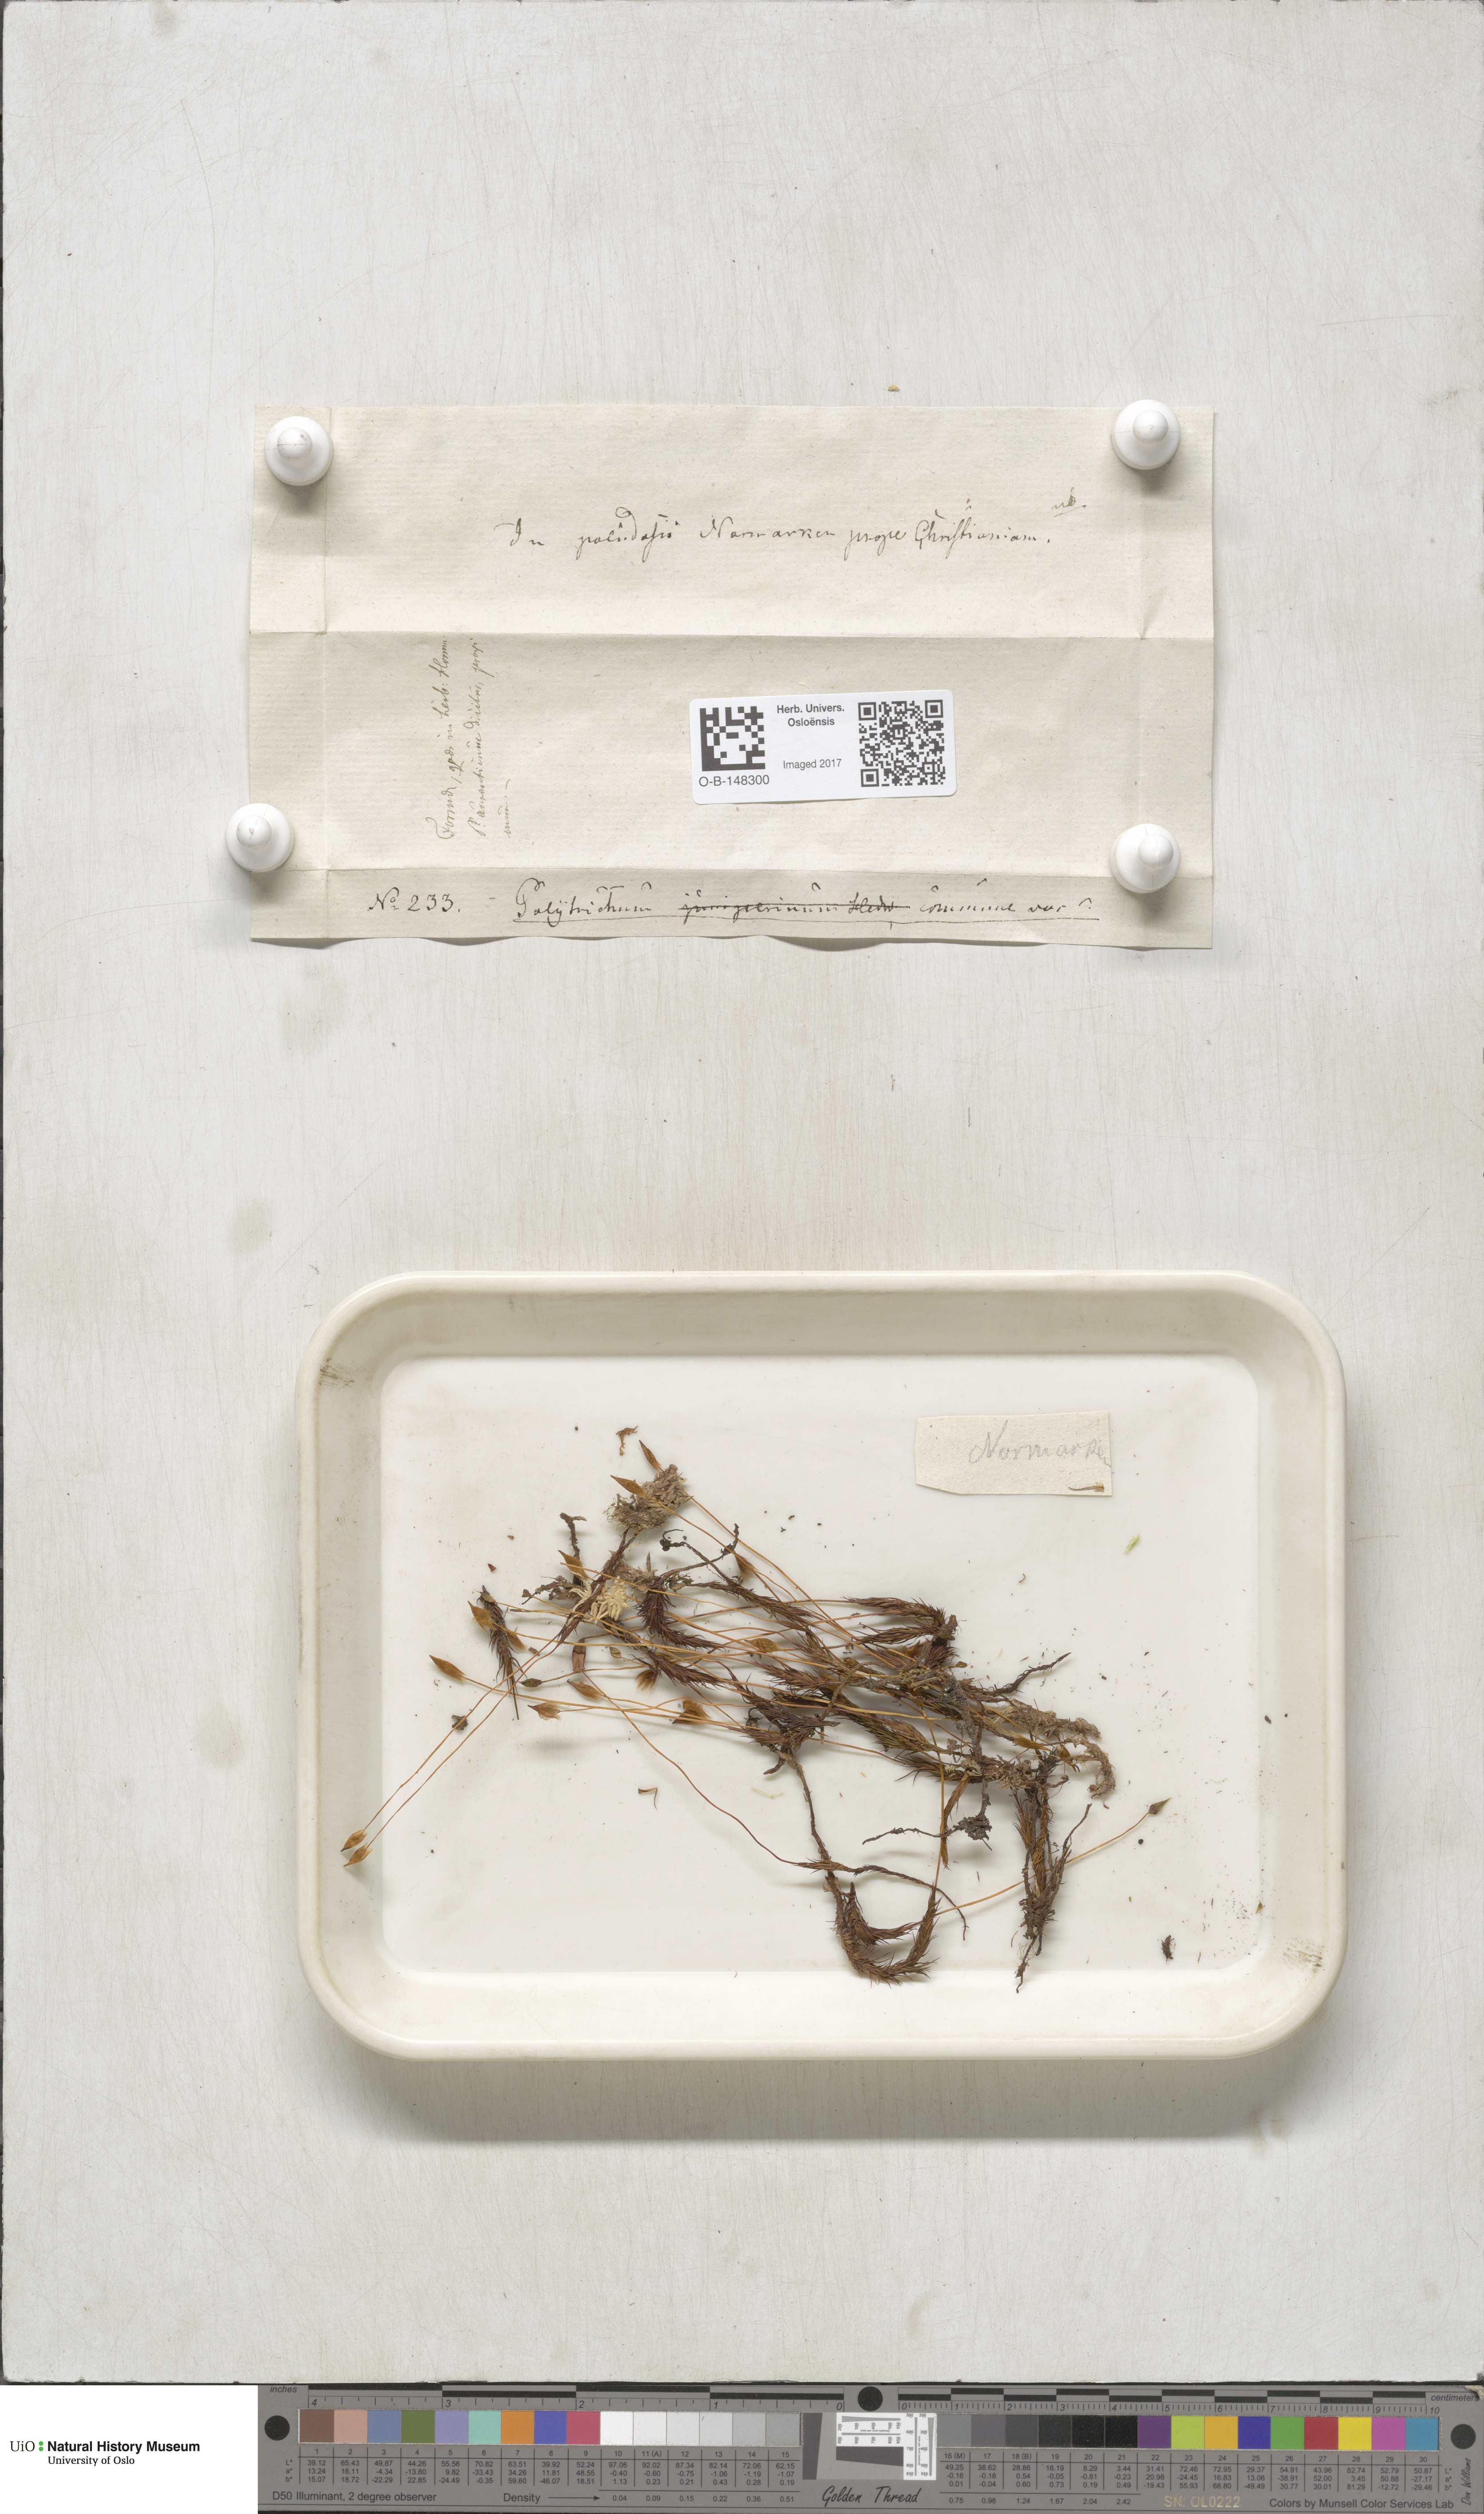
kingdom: Plantae
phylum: Bryophyta
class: Polytrichopsida
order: Polytrichales
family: Polytrichaceae
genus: Polytrichum
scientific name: Polytrichum commune
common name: Common haircap
